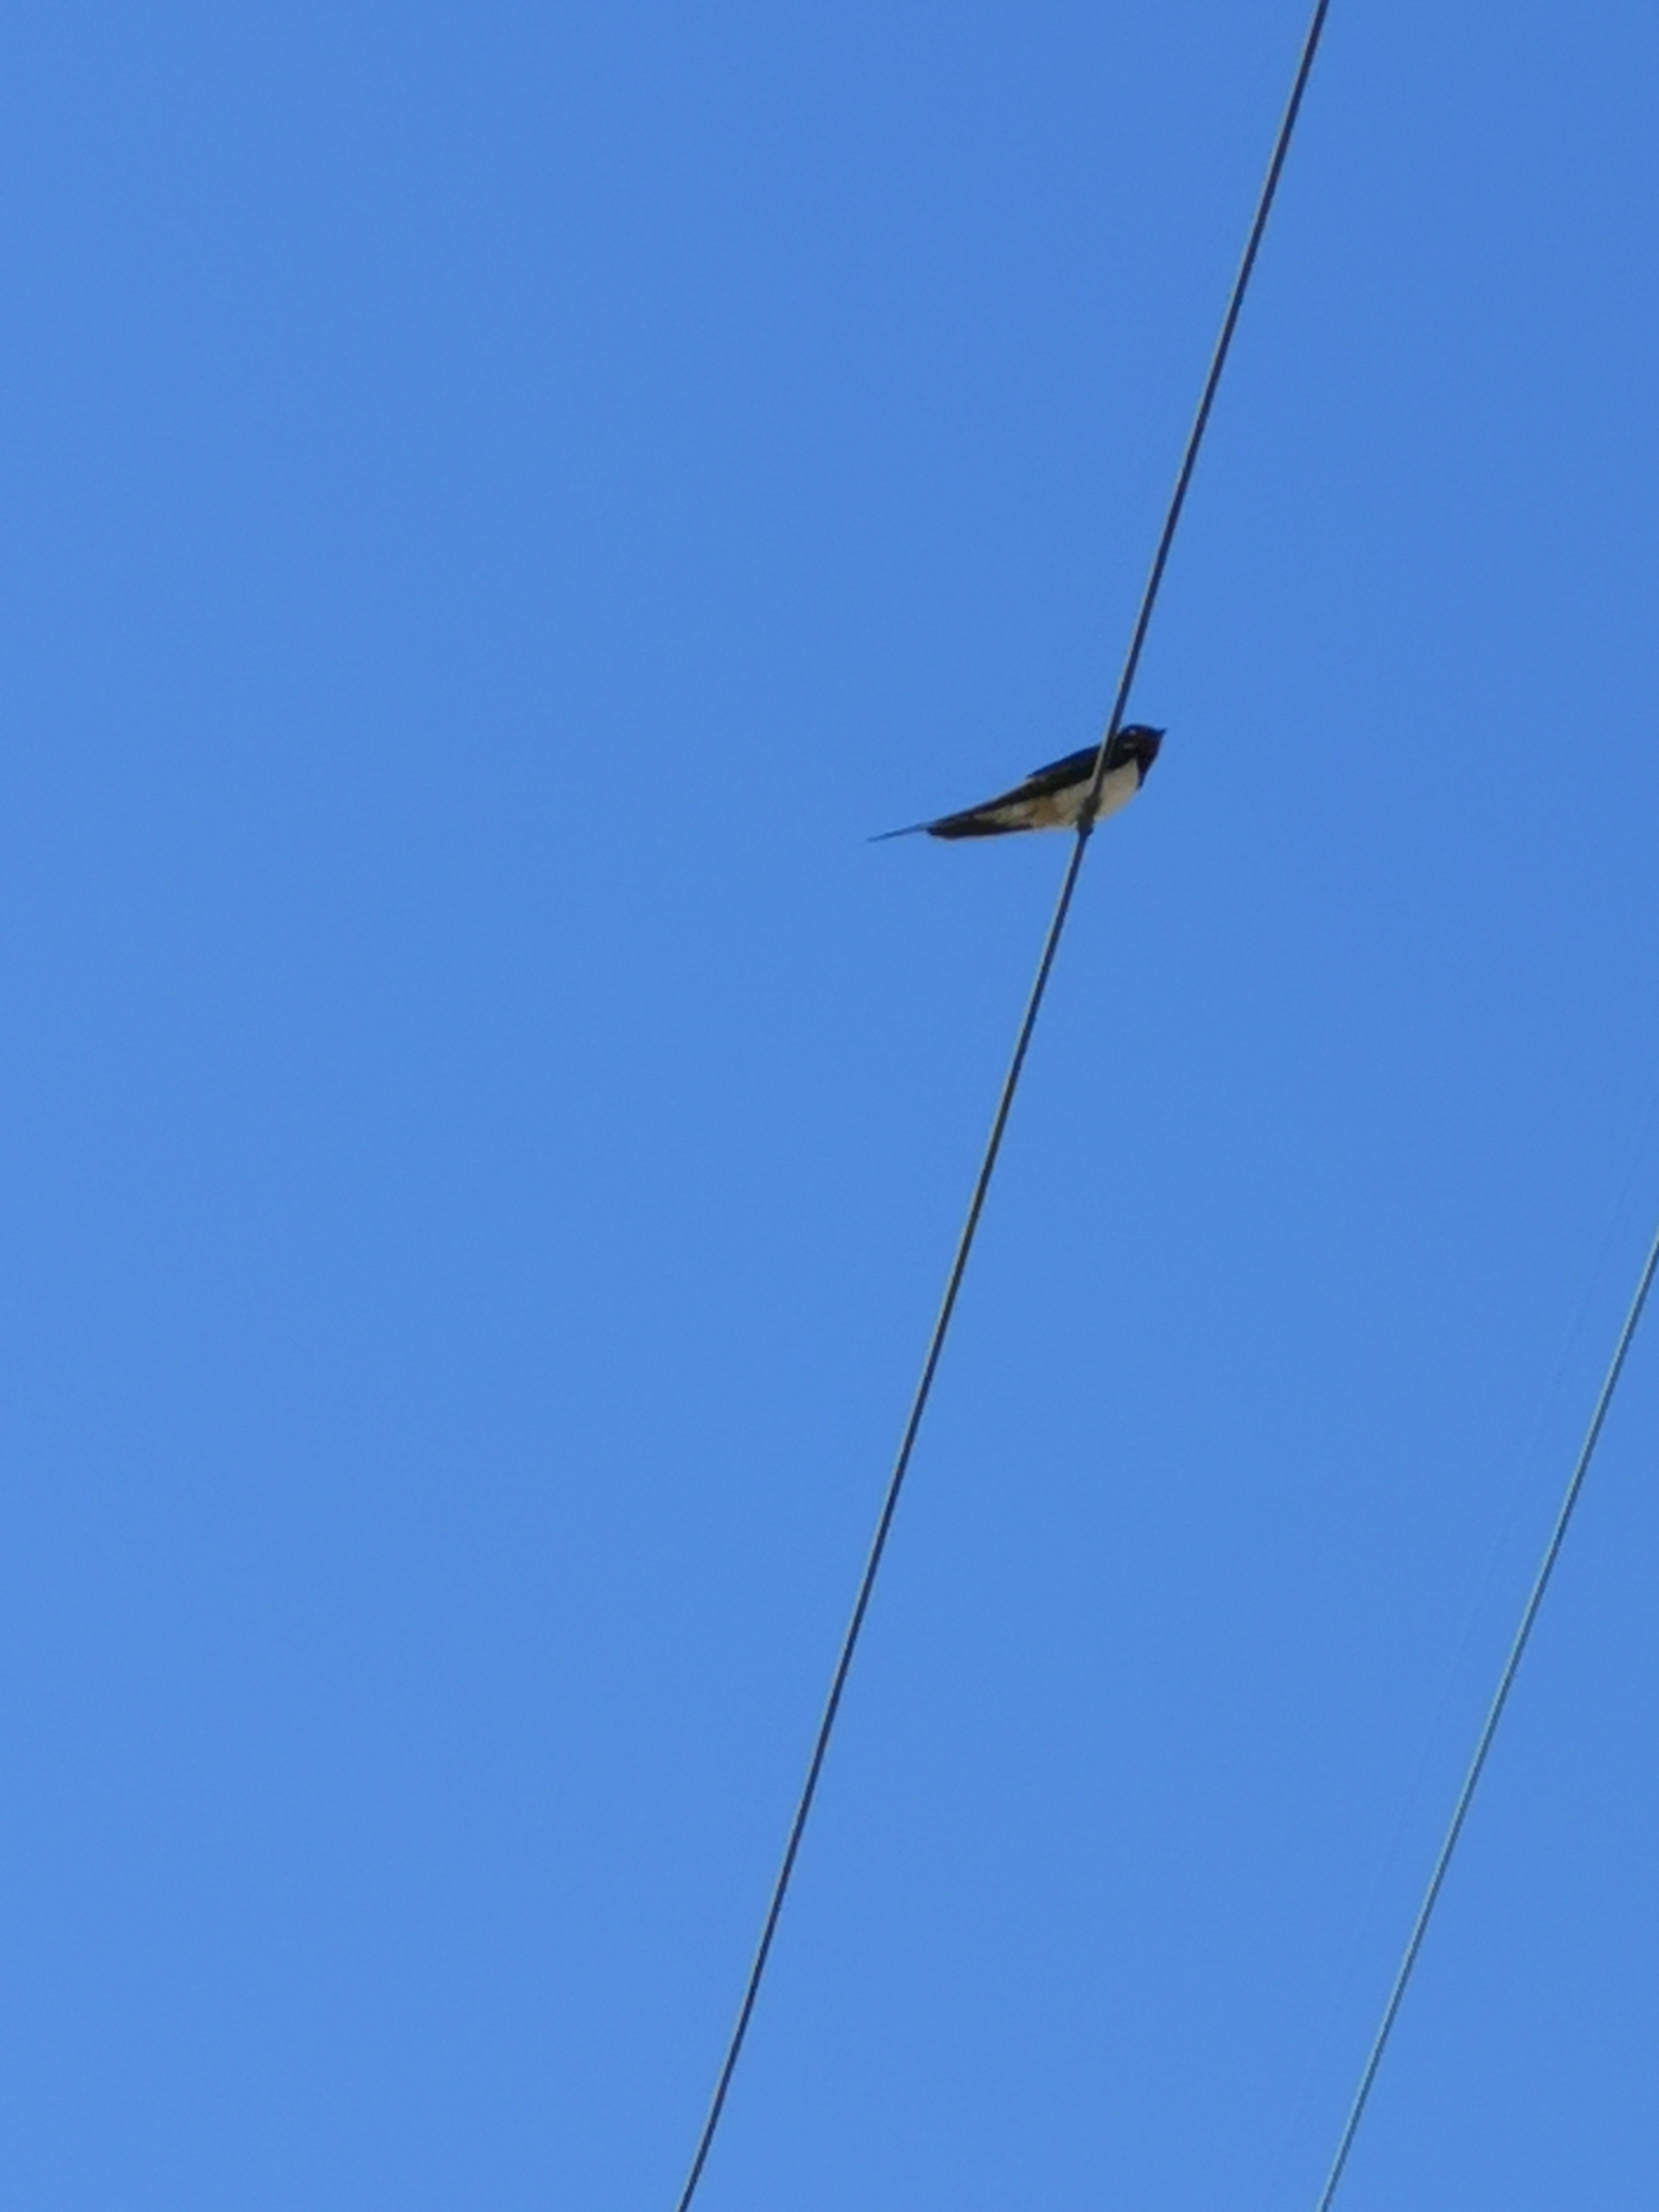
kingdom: Animalia
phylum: Chordata
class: Aves
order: Passeriformes
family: Hirundinidae
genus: Hirundo
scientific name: Hirundo rustica
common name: Landsvale
